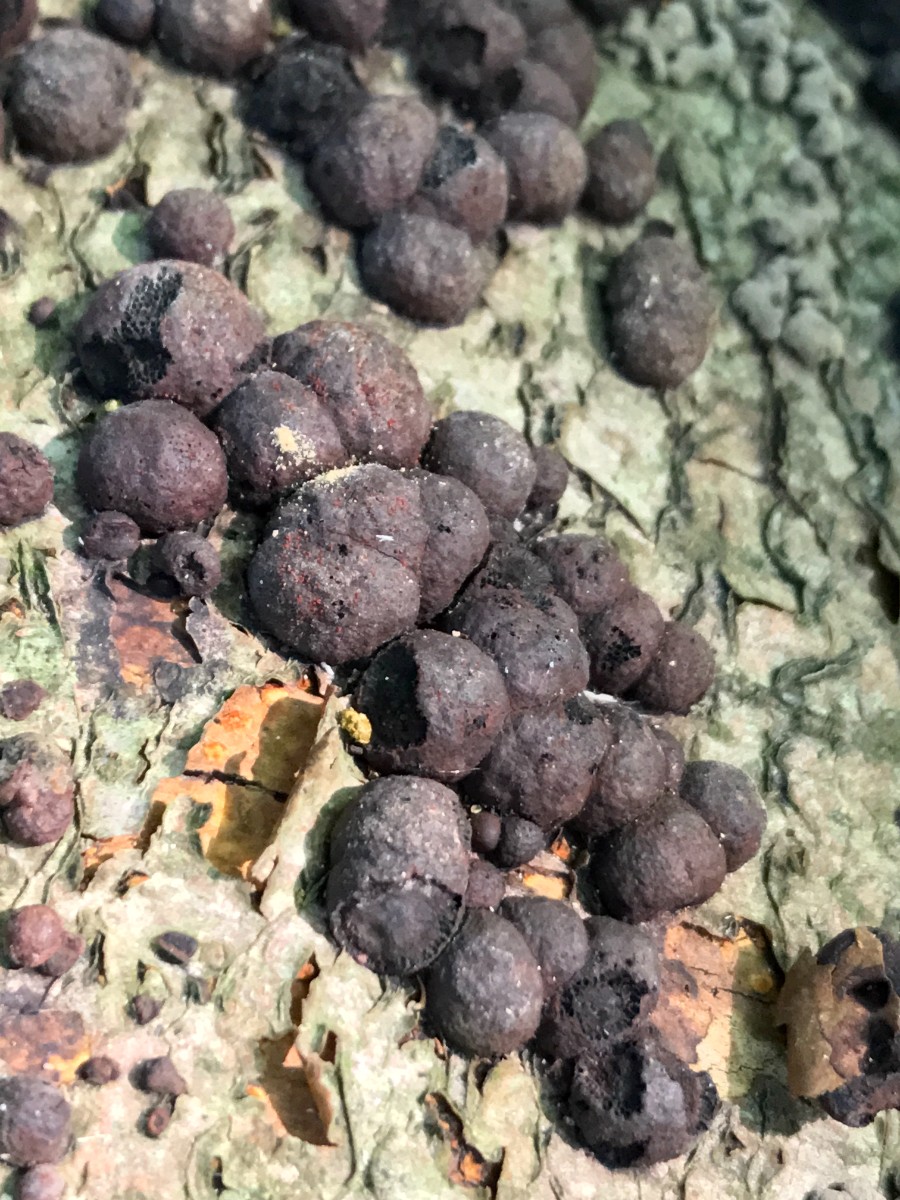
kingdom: Fungi
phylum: Ascomycota
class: Sordariomycetes
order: Xylariales
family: Hypoxylaceae
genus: Hypoxylon
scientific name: Hypoxylon fragiforme
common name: kuljordbær
